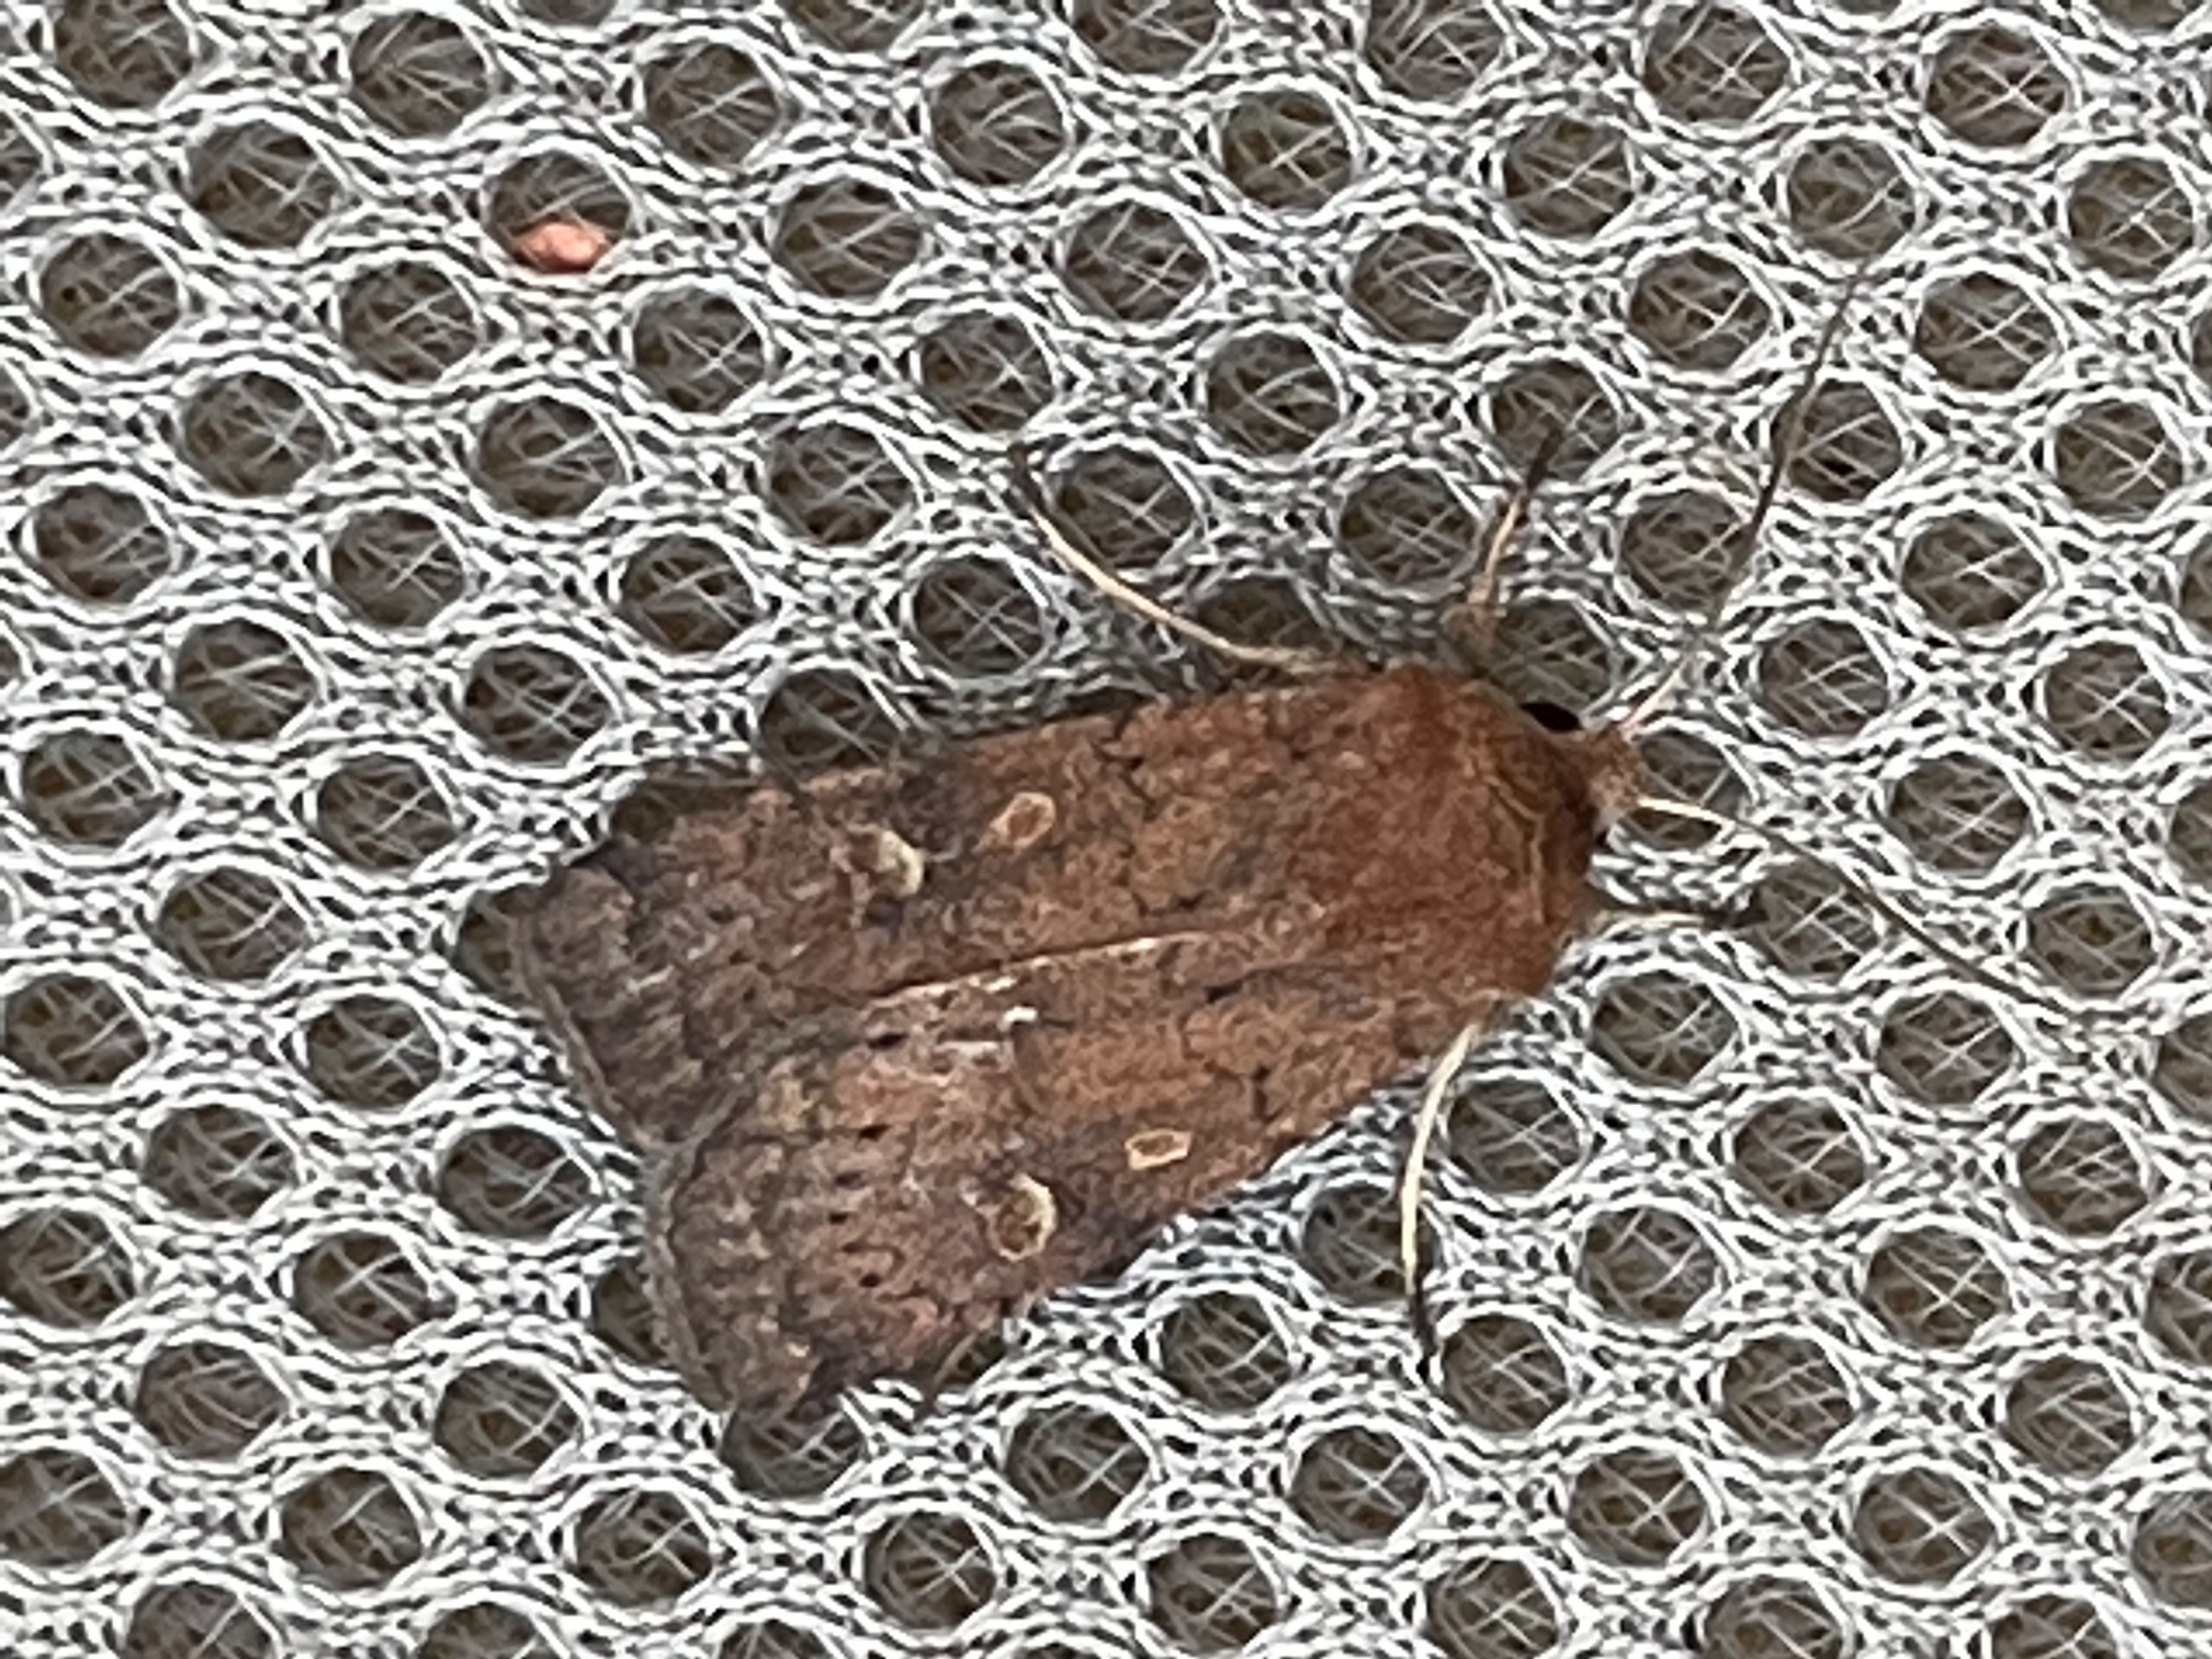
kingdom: Animalia
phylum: Arthropoda
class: Insecta
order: Lepidoptera
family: Noctuidae
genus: Xestia
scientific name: Xestia xanthographa
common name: Gulmærket glansugle
